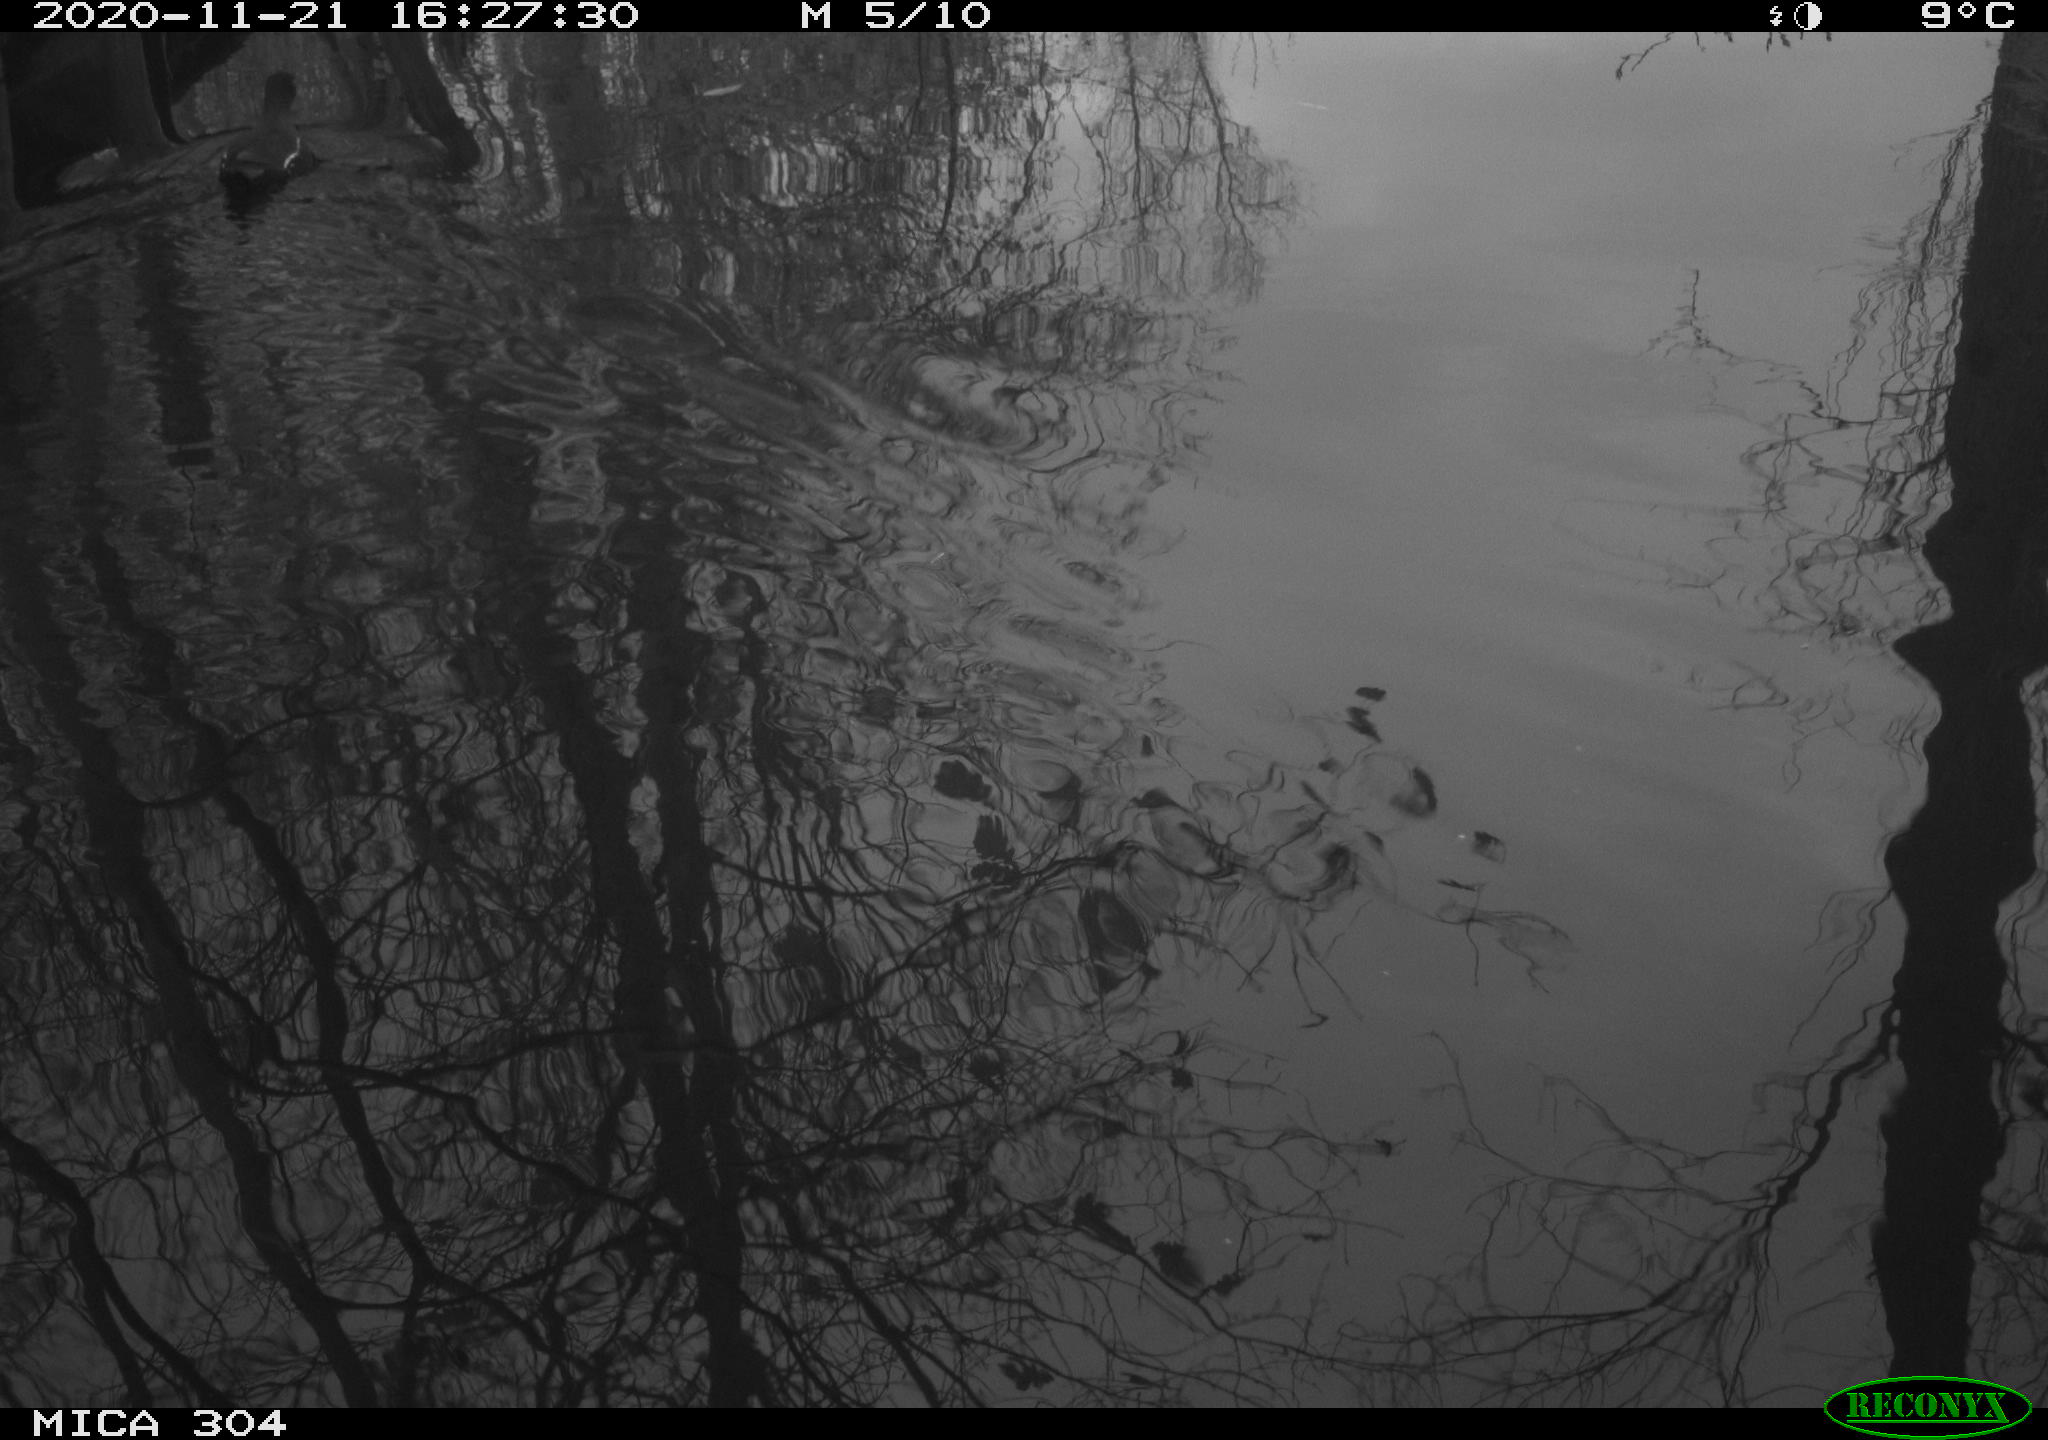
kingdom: Animalia
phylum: Chordata
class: Aves
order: Gruiformes
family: Rallidae
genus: Gallinula
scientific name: Gallinula chloropus
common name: Common moorhen
